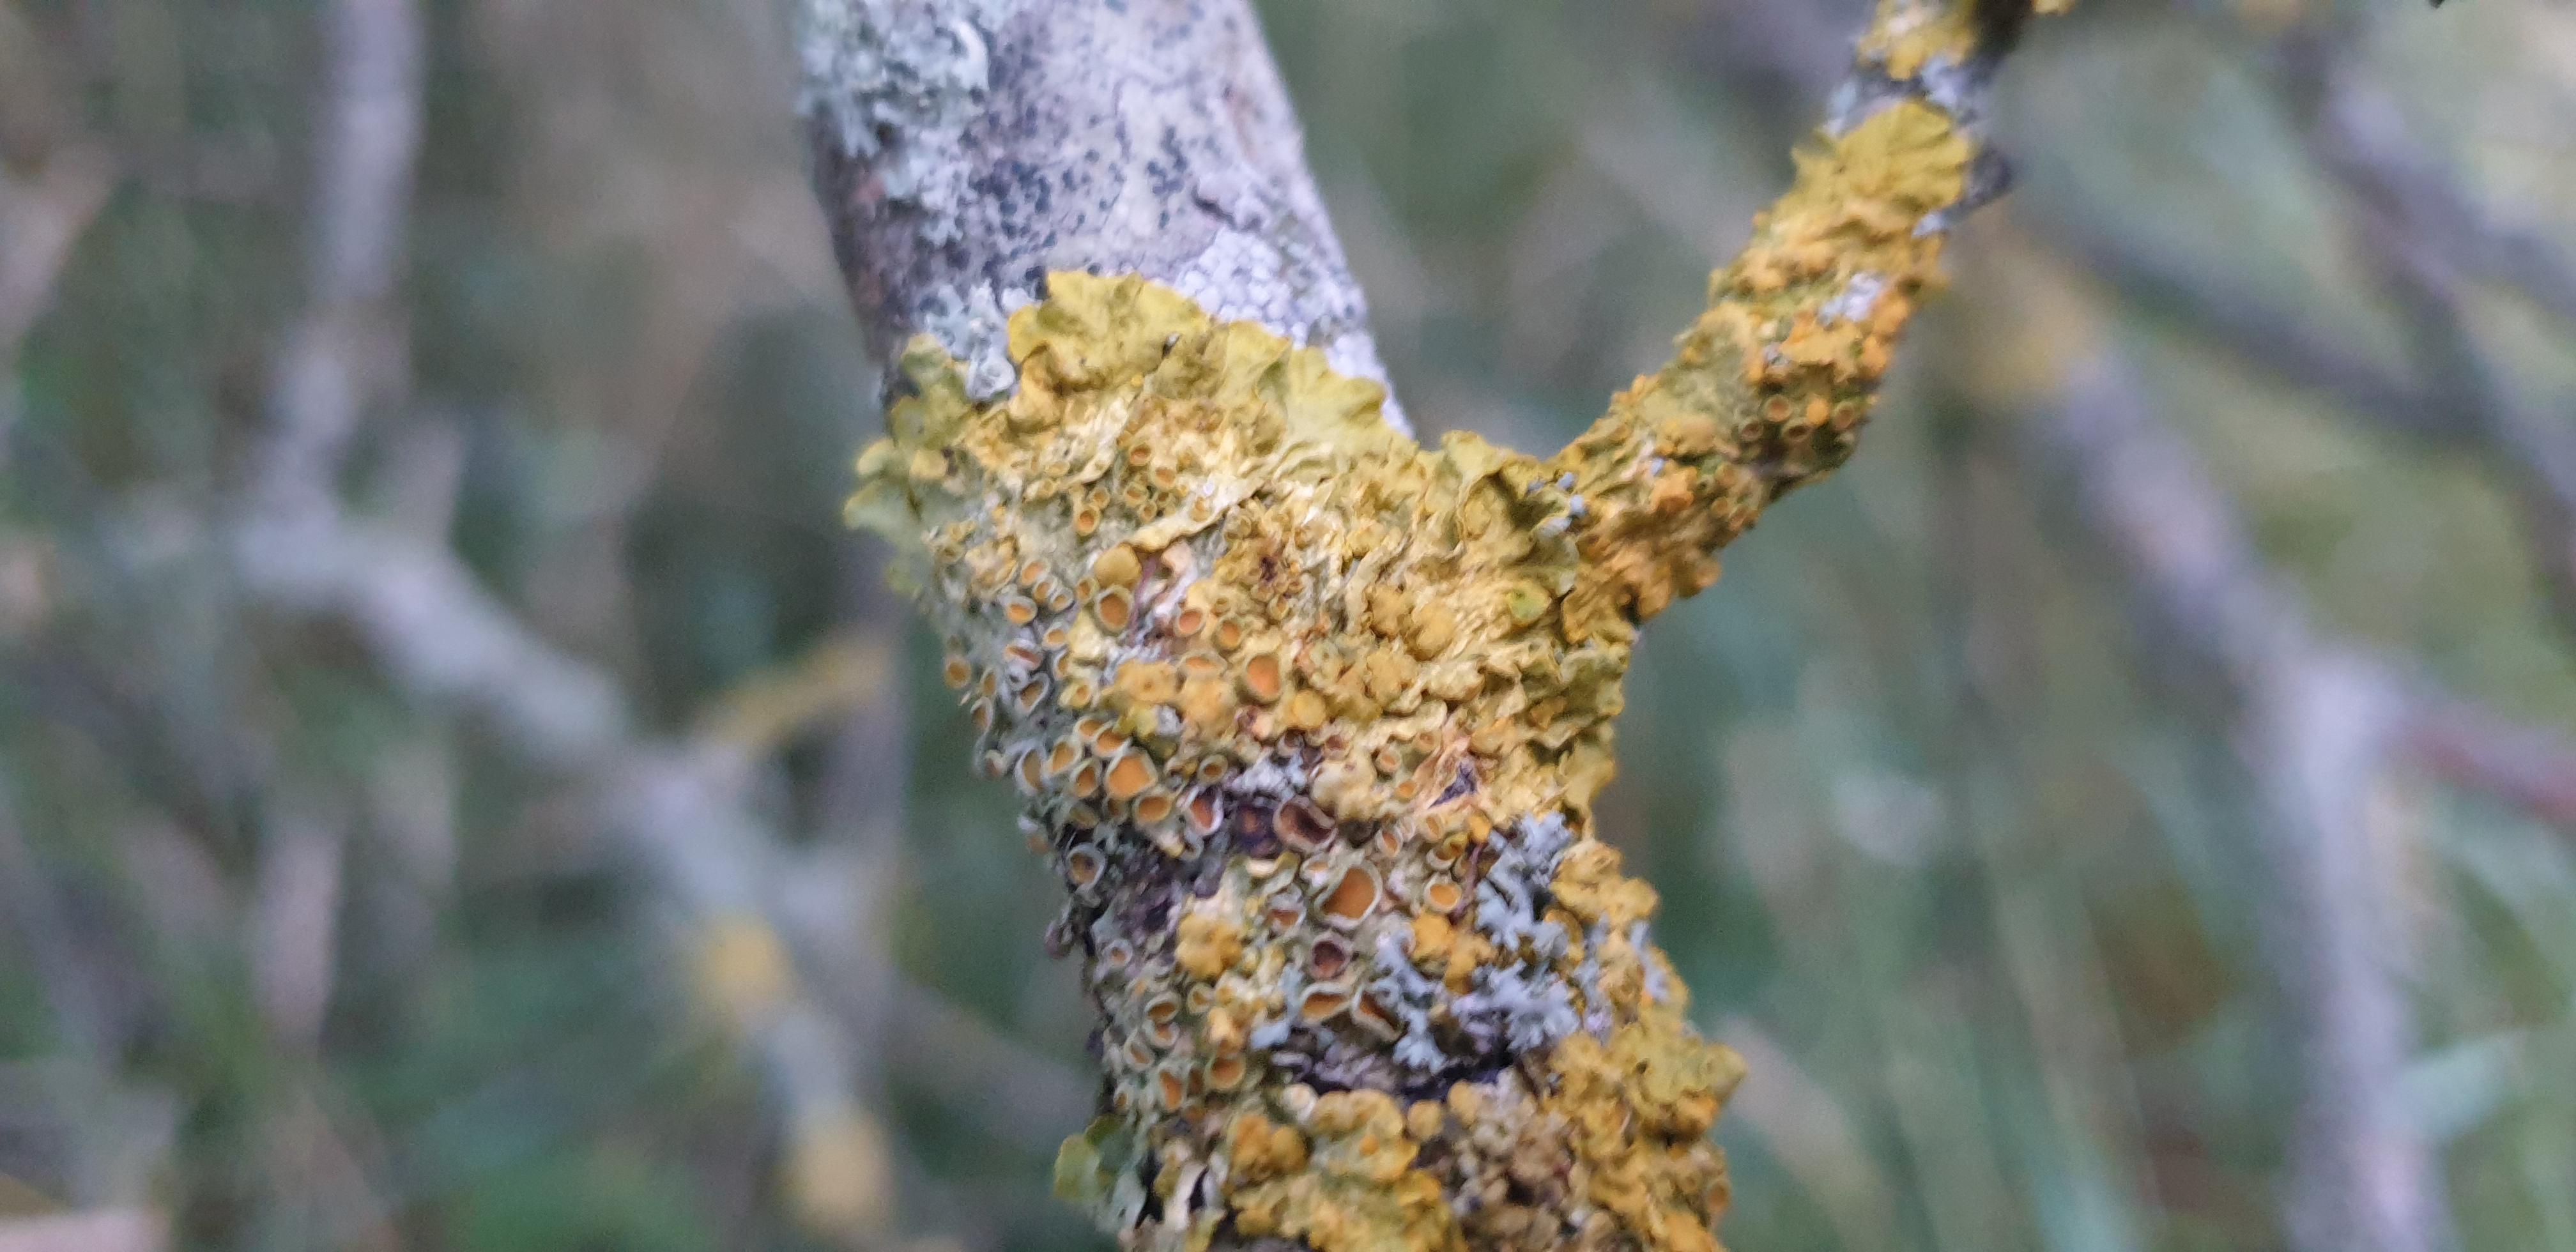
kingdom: Fungi
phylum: Ascomycota
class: Lecanoromycetes
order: Teloschistales
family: Teloschistaceae
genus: Xanthoria
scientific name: Xanthoria parietina
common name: almindelig væggelav
